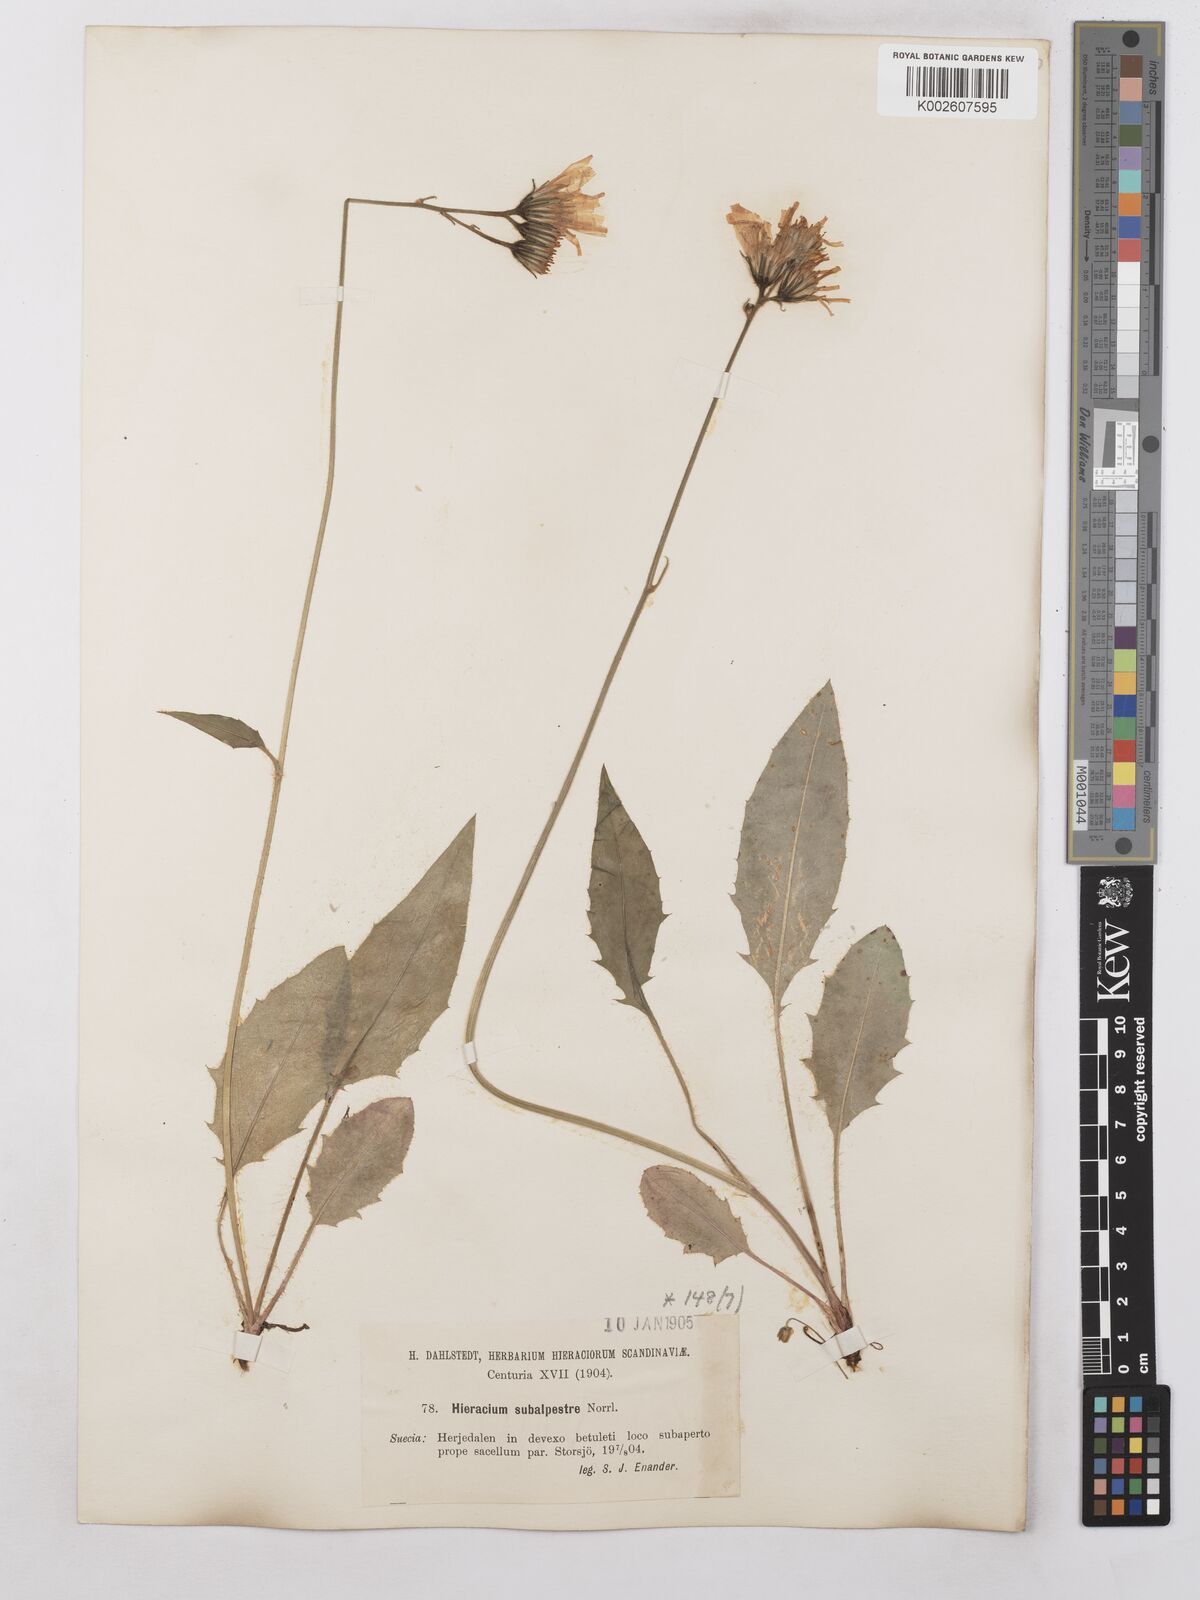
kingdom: Plantae
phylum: Tracheophyta
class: Magnoliopsida
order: Asterales
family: Asteraceae
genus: Hieracium
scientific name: Hieracium subramosum
